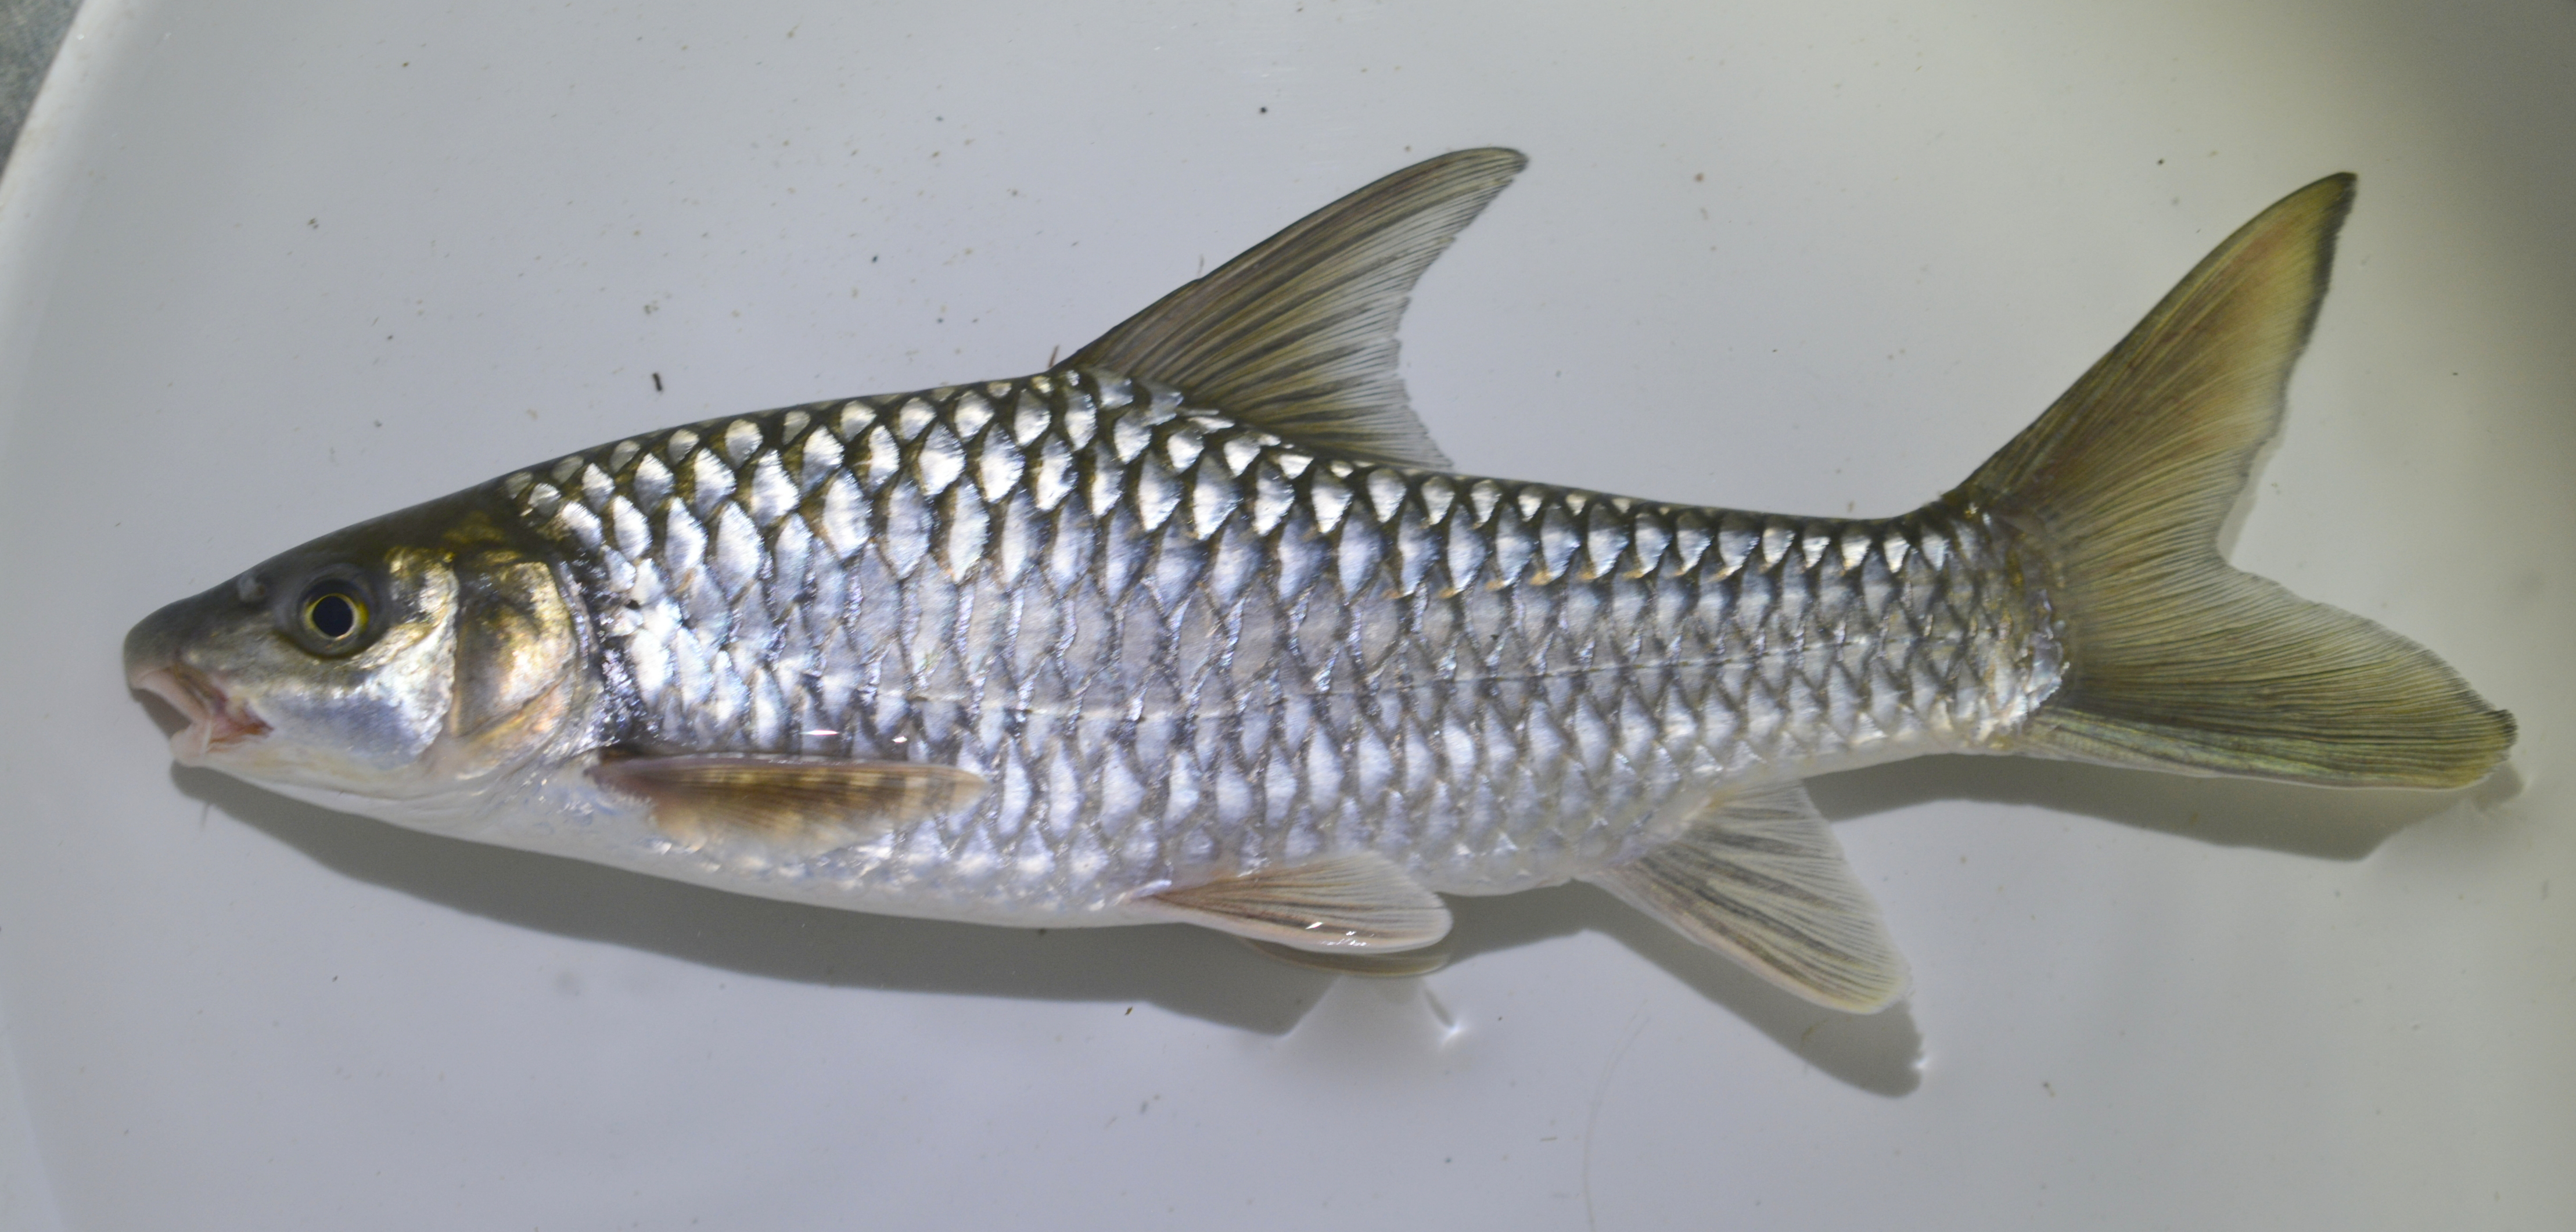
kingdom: Animalia
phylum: Chordata
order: Cypriniformes
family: Cyprinidae
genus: Labeobarbus
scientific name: Labeobarbus codringtonii
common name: Upper zambezi yellowfish
